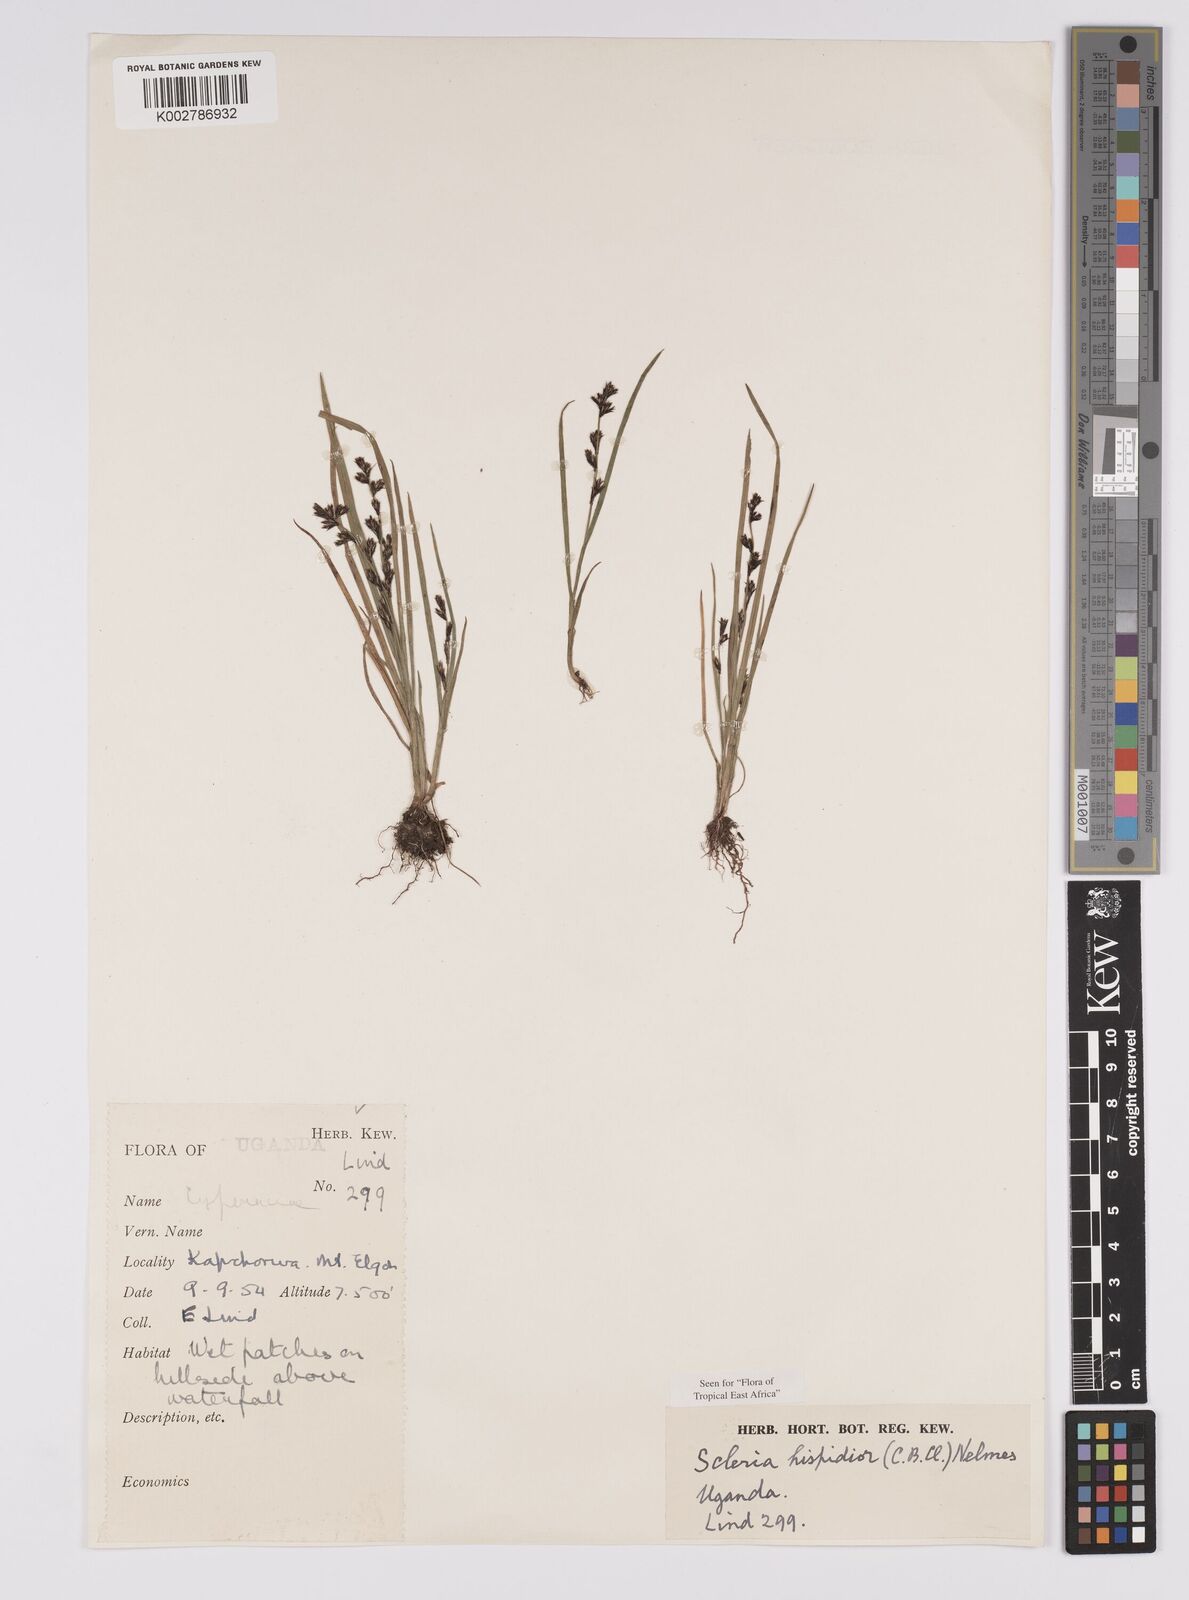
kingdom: Plantae
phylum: Tracheophyta
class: Liliopsida
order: Poales
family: Cyperaceae
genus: Scleria
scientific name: Scleria hispidula
